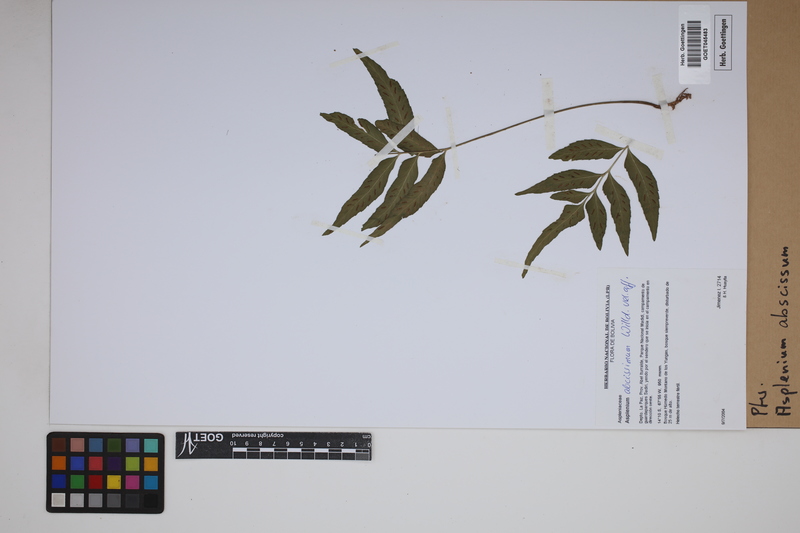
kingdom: Plantae
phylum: Tracheophyta
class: Polypodiopsida
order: Polypodiales
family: Aspleniaceae
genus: Asplenium
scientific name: Asplenium abscissum
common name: Cutleaf spleenwort
